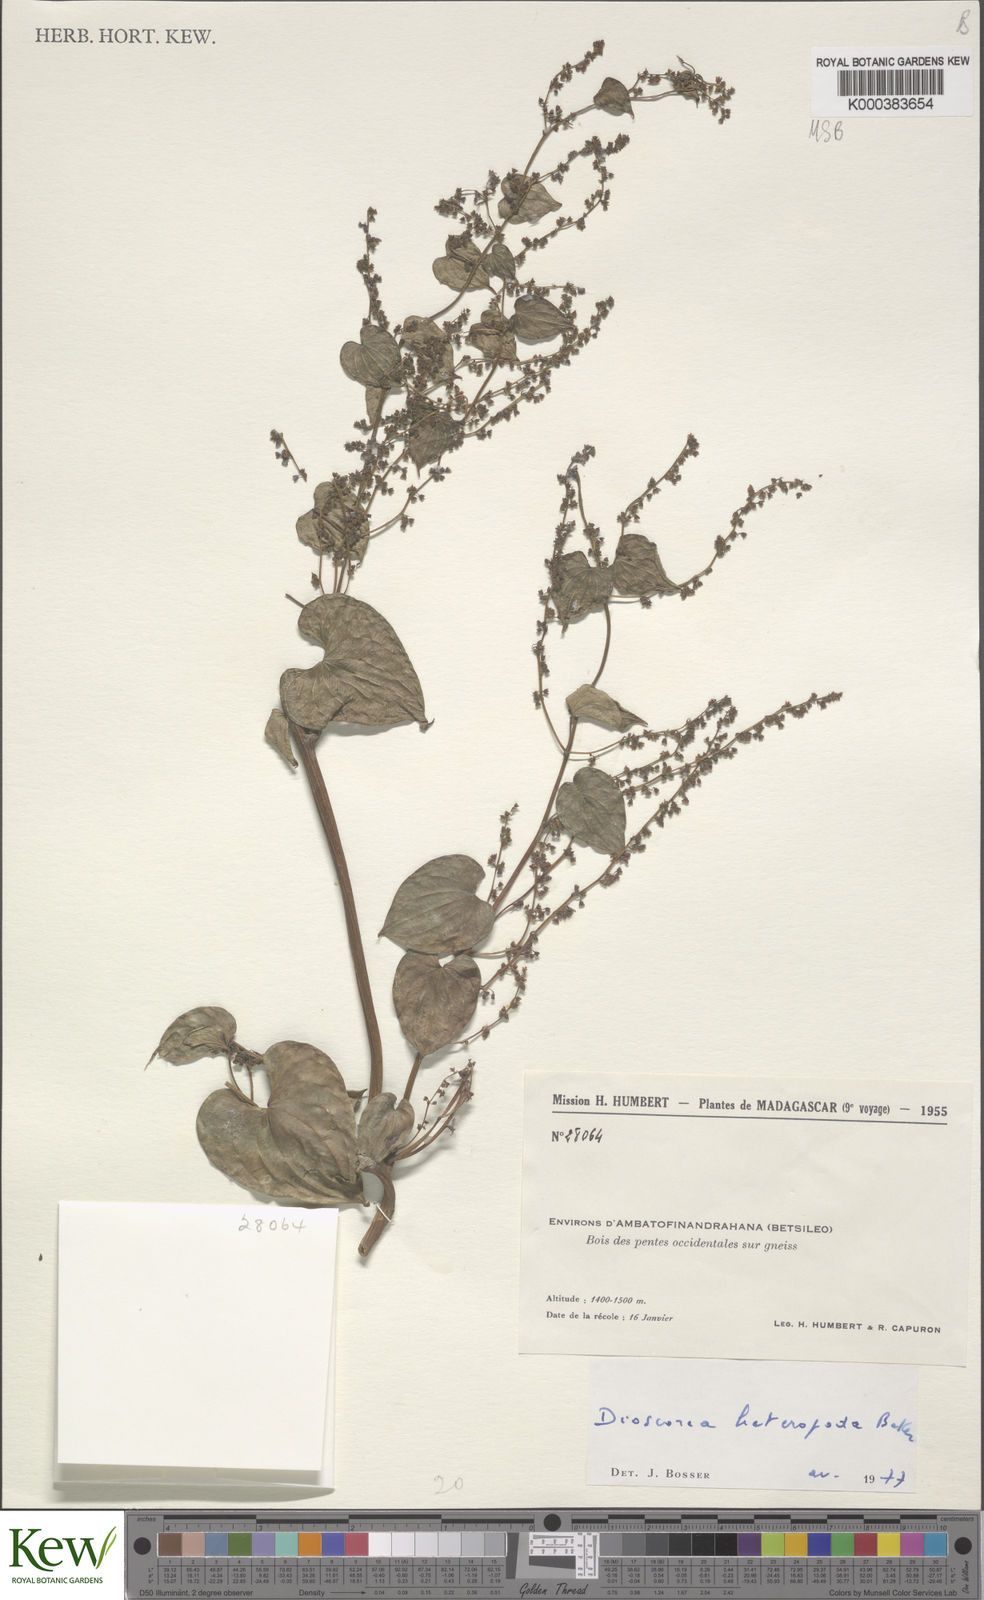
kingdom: Plantae
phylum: Tracheophyta
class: Liliopsida
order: Dioscoreales
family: Dioscoreaceae
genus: Dioscorea
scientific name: Dioscorea heteropoda
